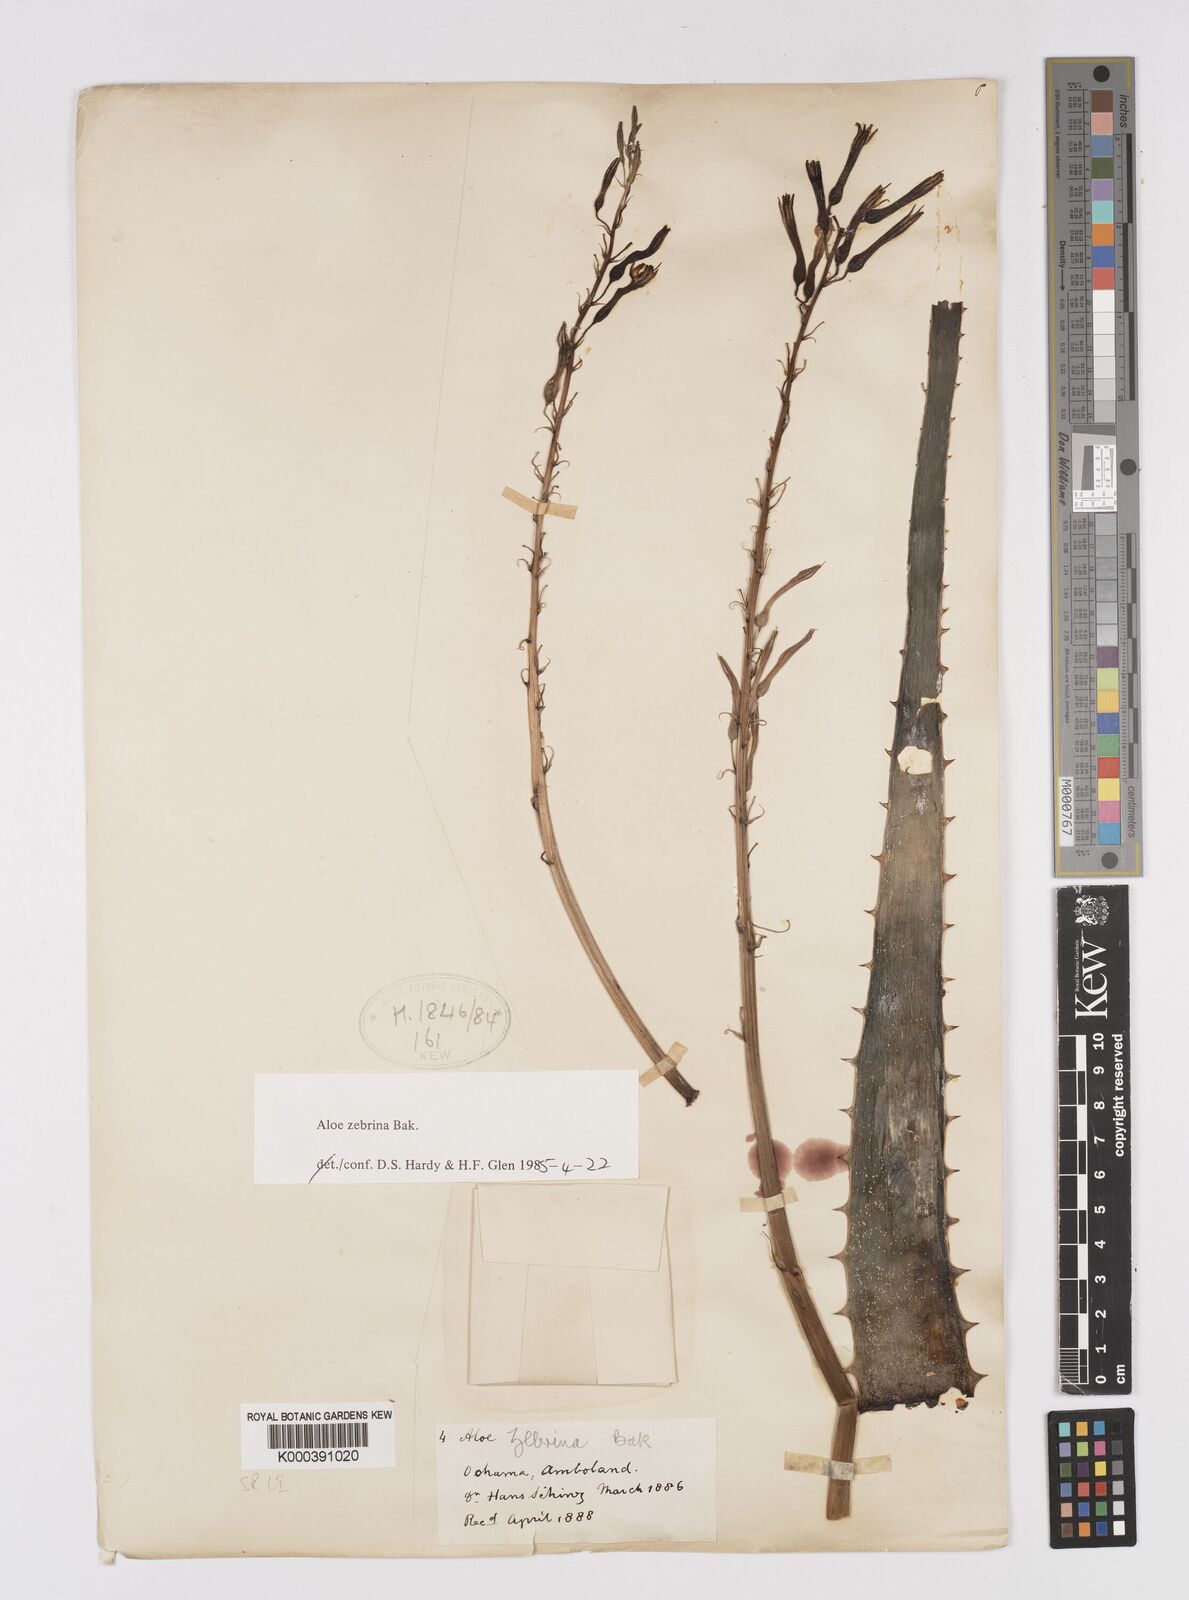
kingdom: Plantae
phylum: Tracheophyta
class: Liliopsida
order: Asparagales
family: Asphodelaceae
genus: Aloe
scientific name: Aloe zebrina
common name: Zebra-leaf aloe
